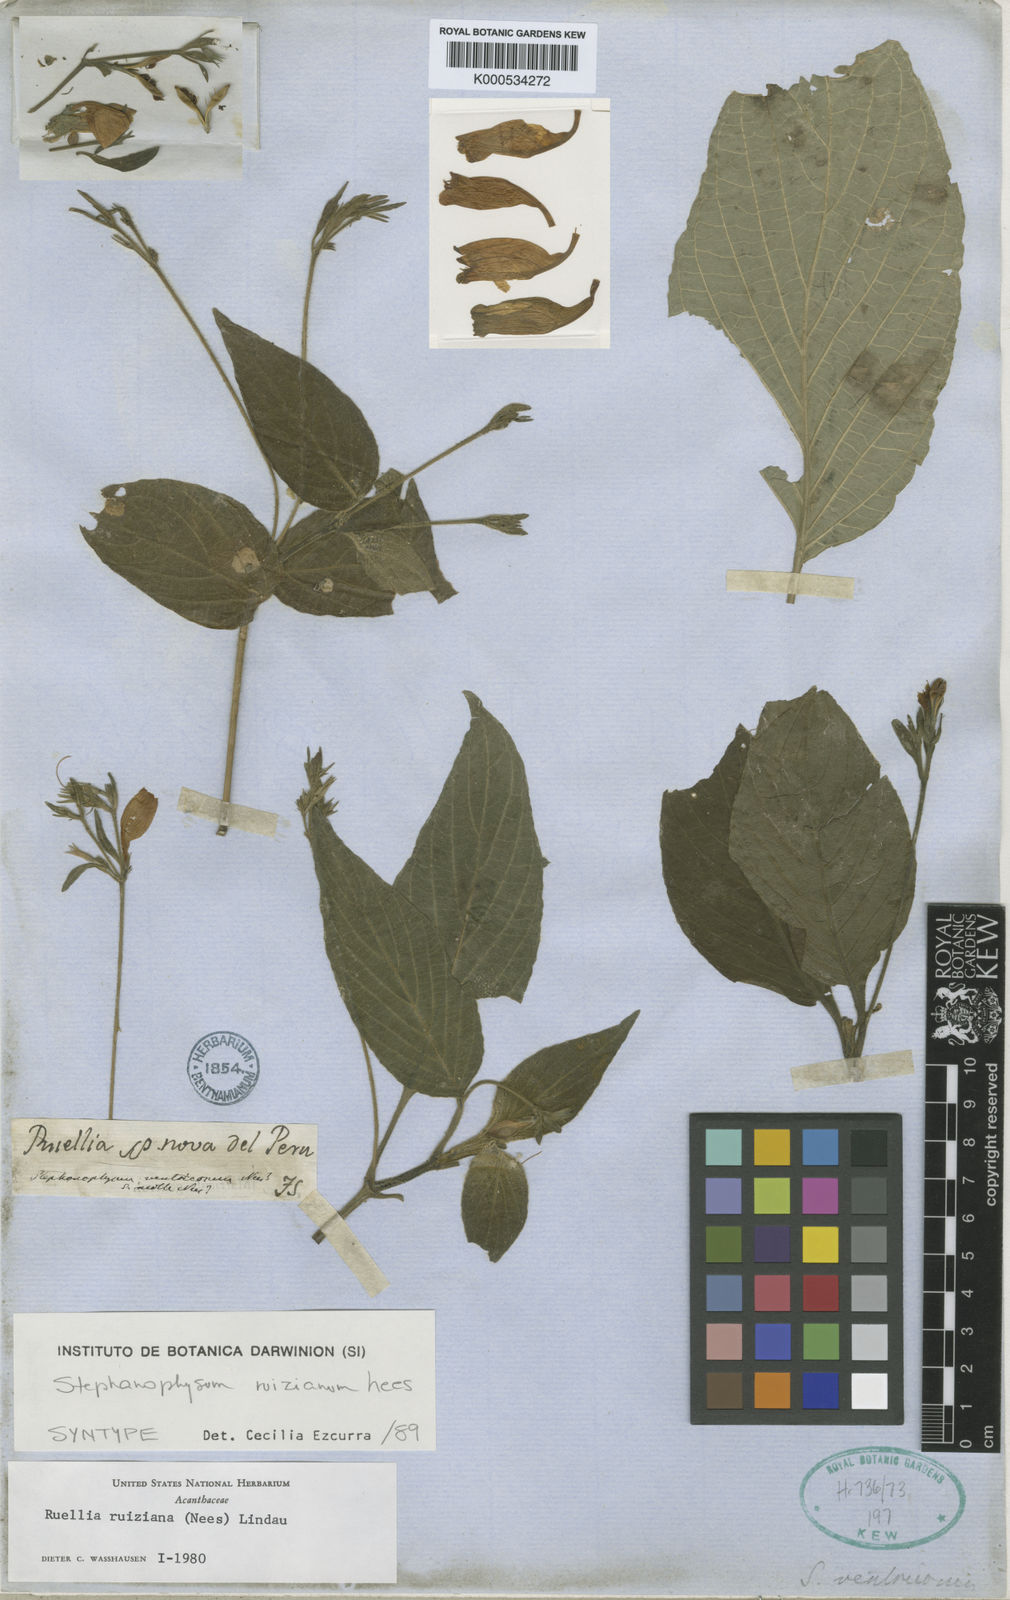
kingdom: Plantae
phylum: Tracheophyta
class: Magnoliopsida
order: Lamiales
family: Acanthaceae
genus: Ruellia
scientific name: Ruellia ruiziana
